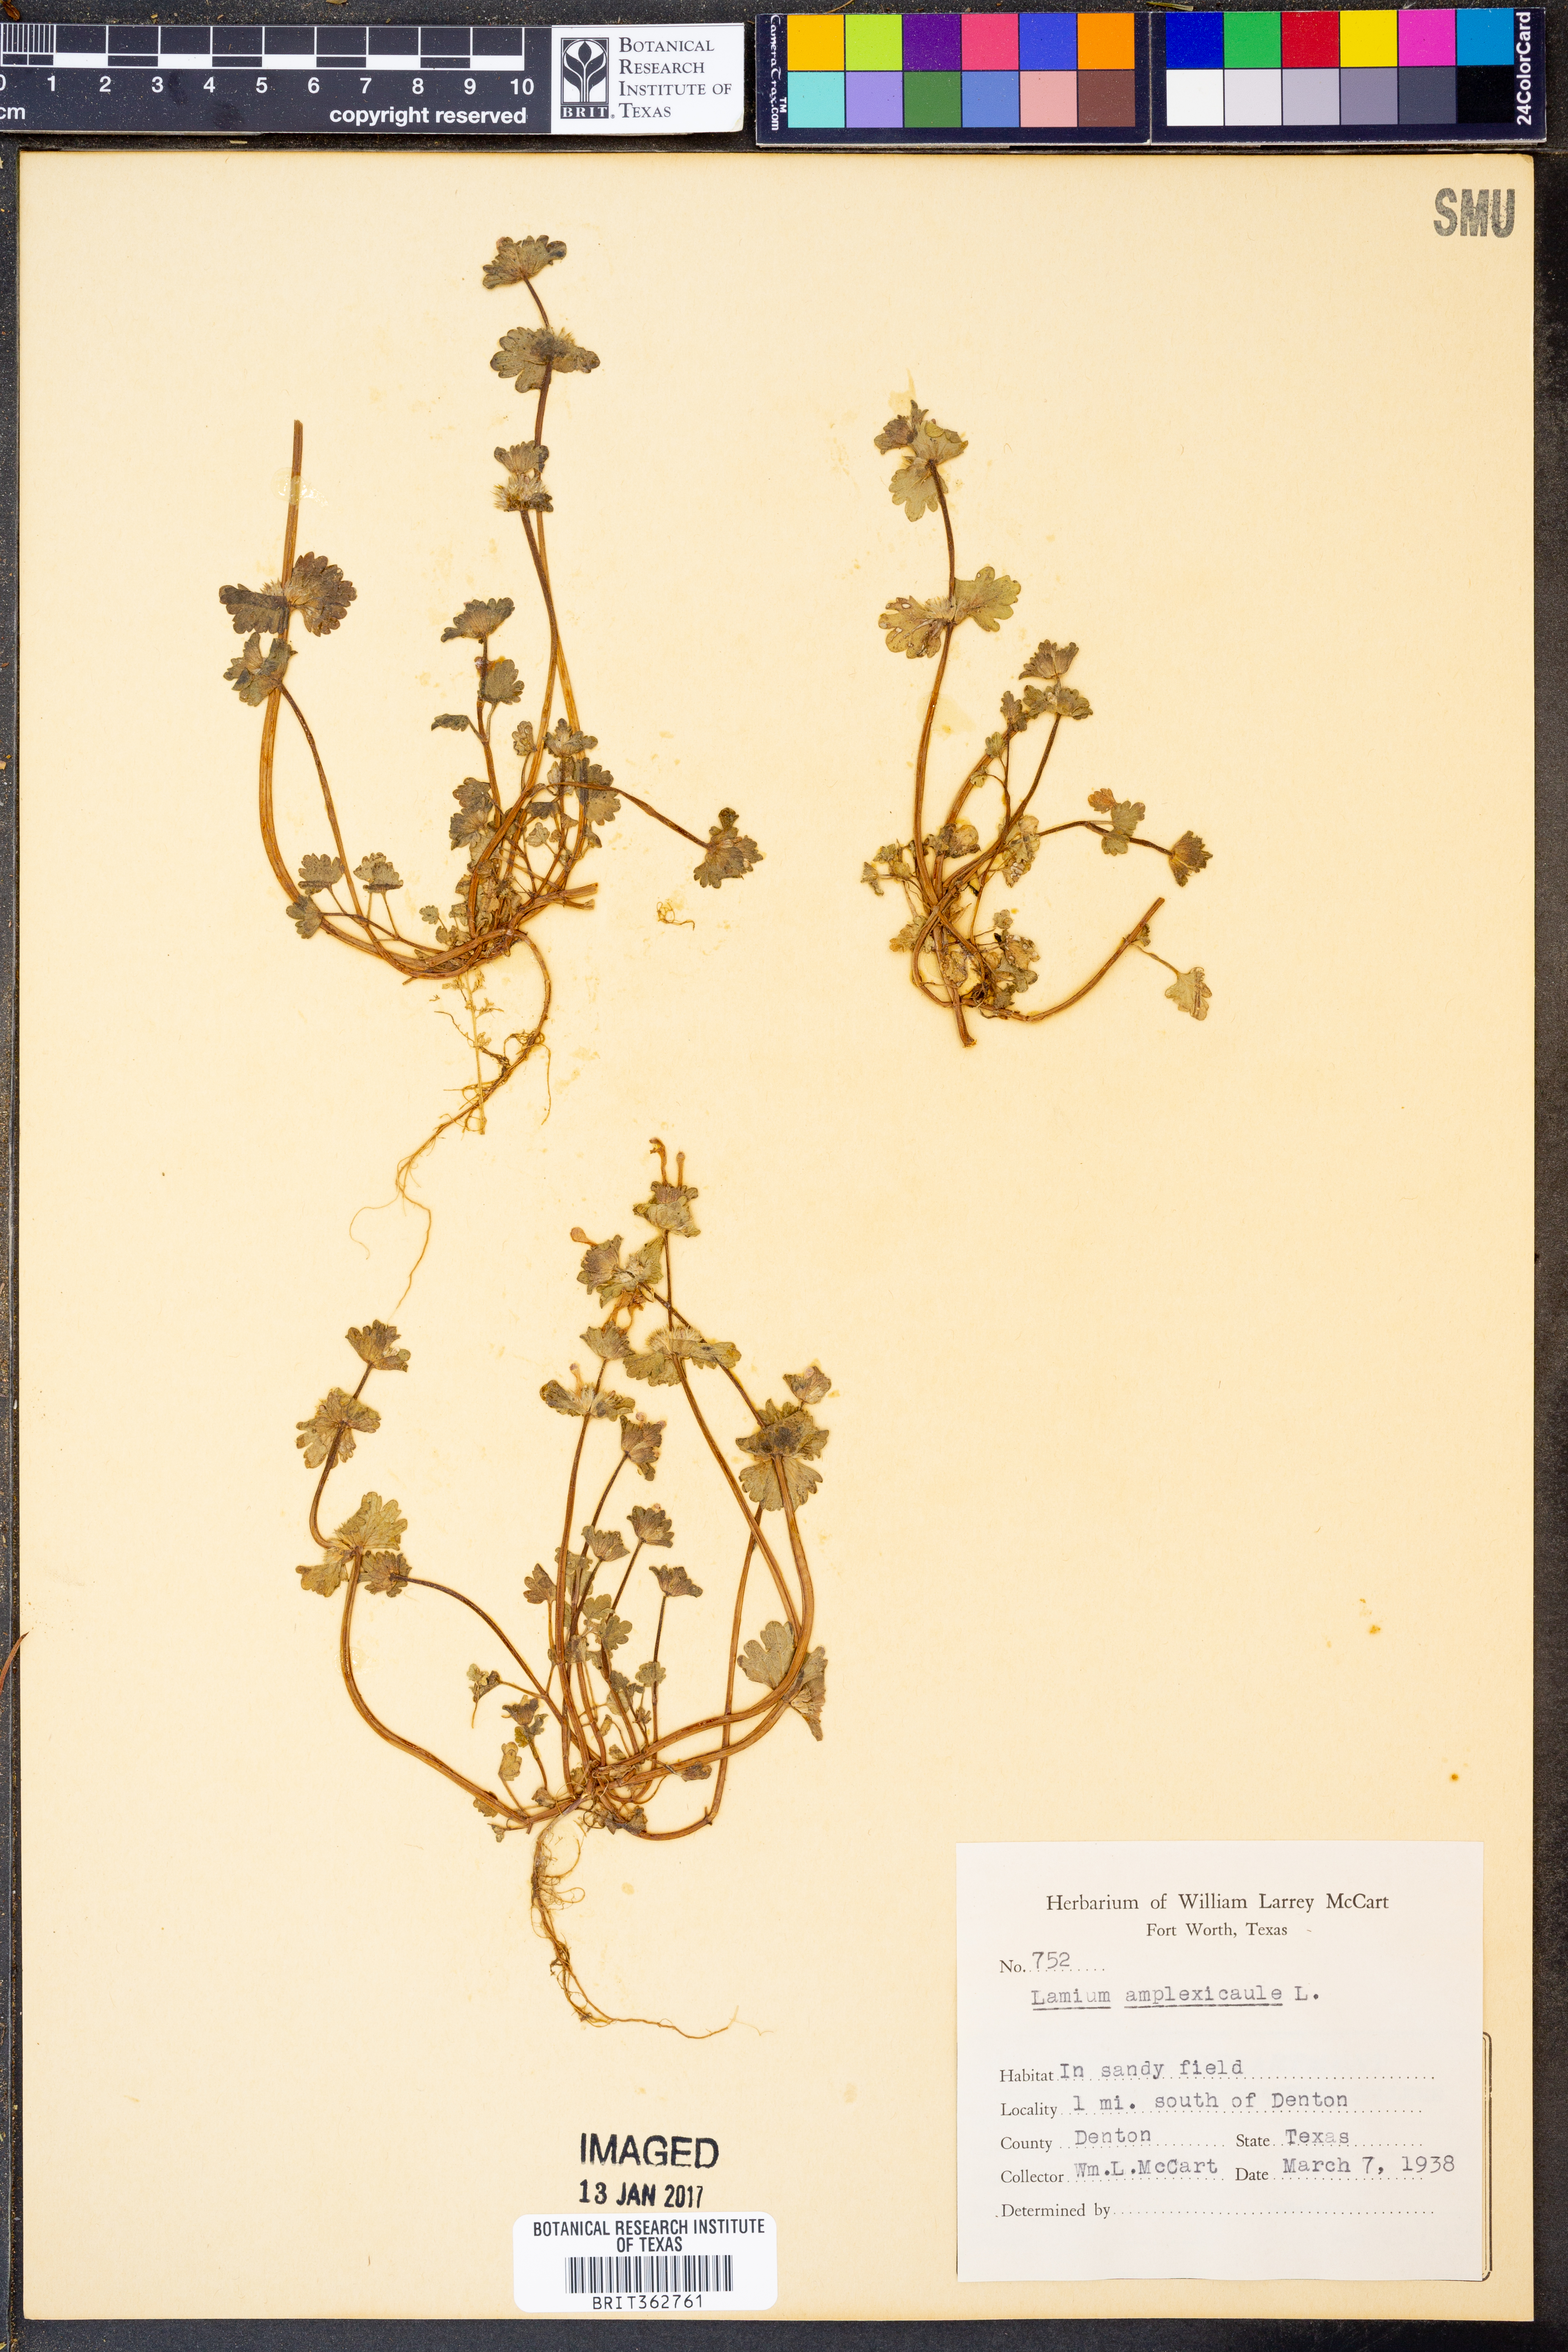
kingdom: Plantae
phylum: Tracheophyta
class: Magnoliopsida
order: Lamiales
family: Lamiaceae
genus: Lamium
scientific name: Lamium amplexicaule
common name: Henbit dead-nettle
